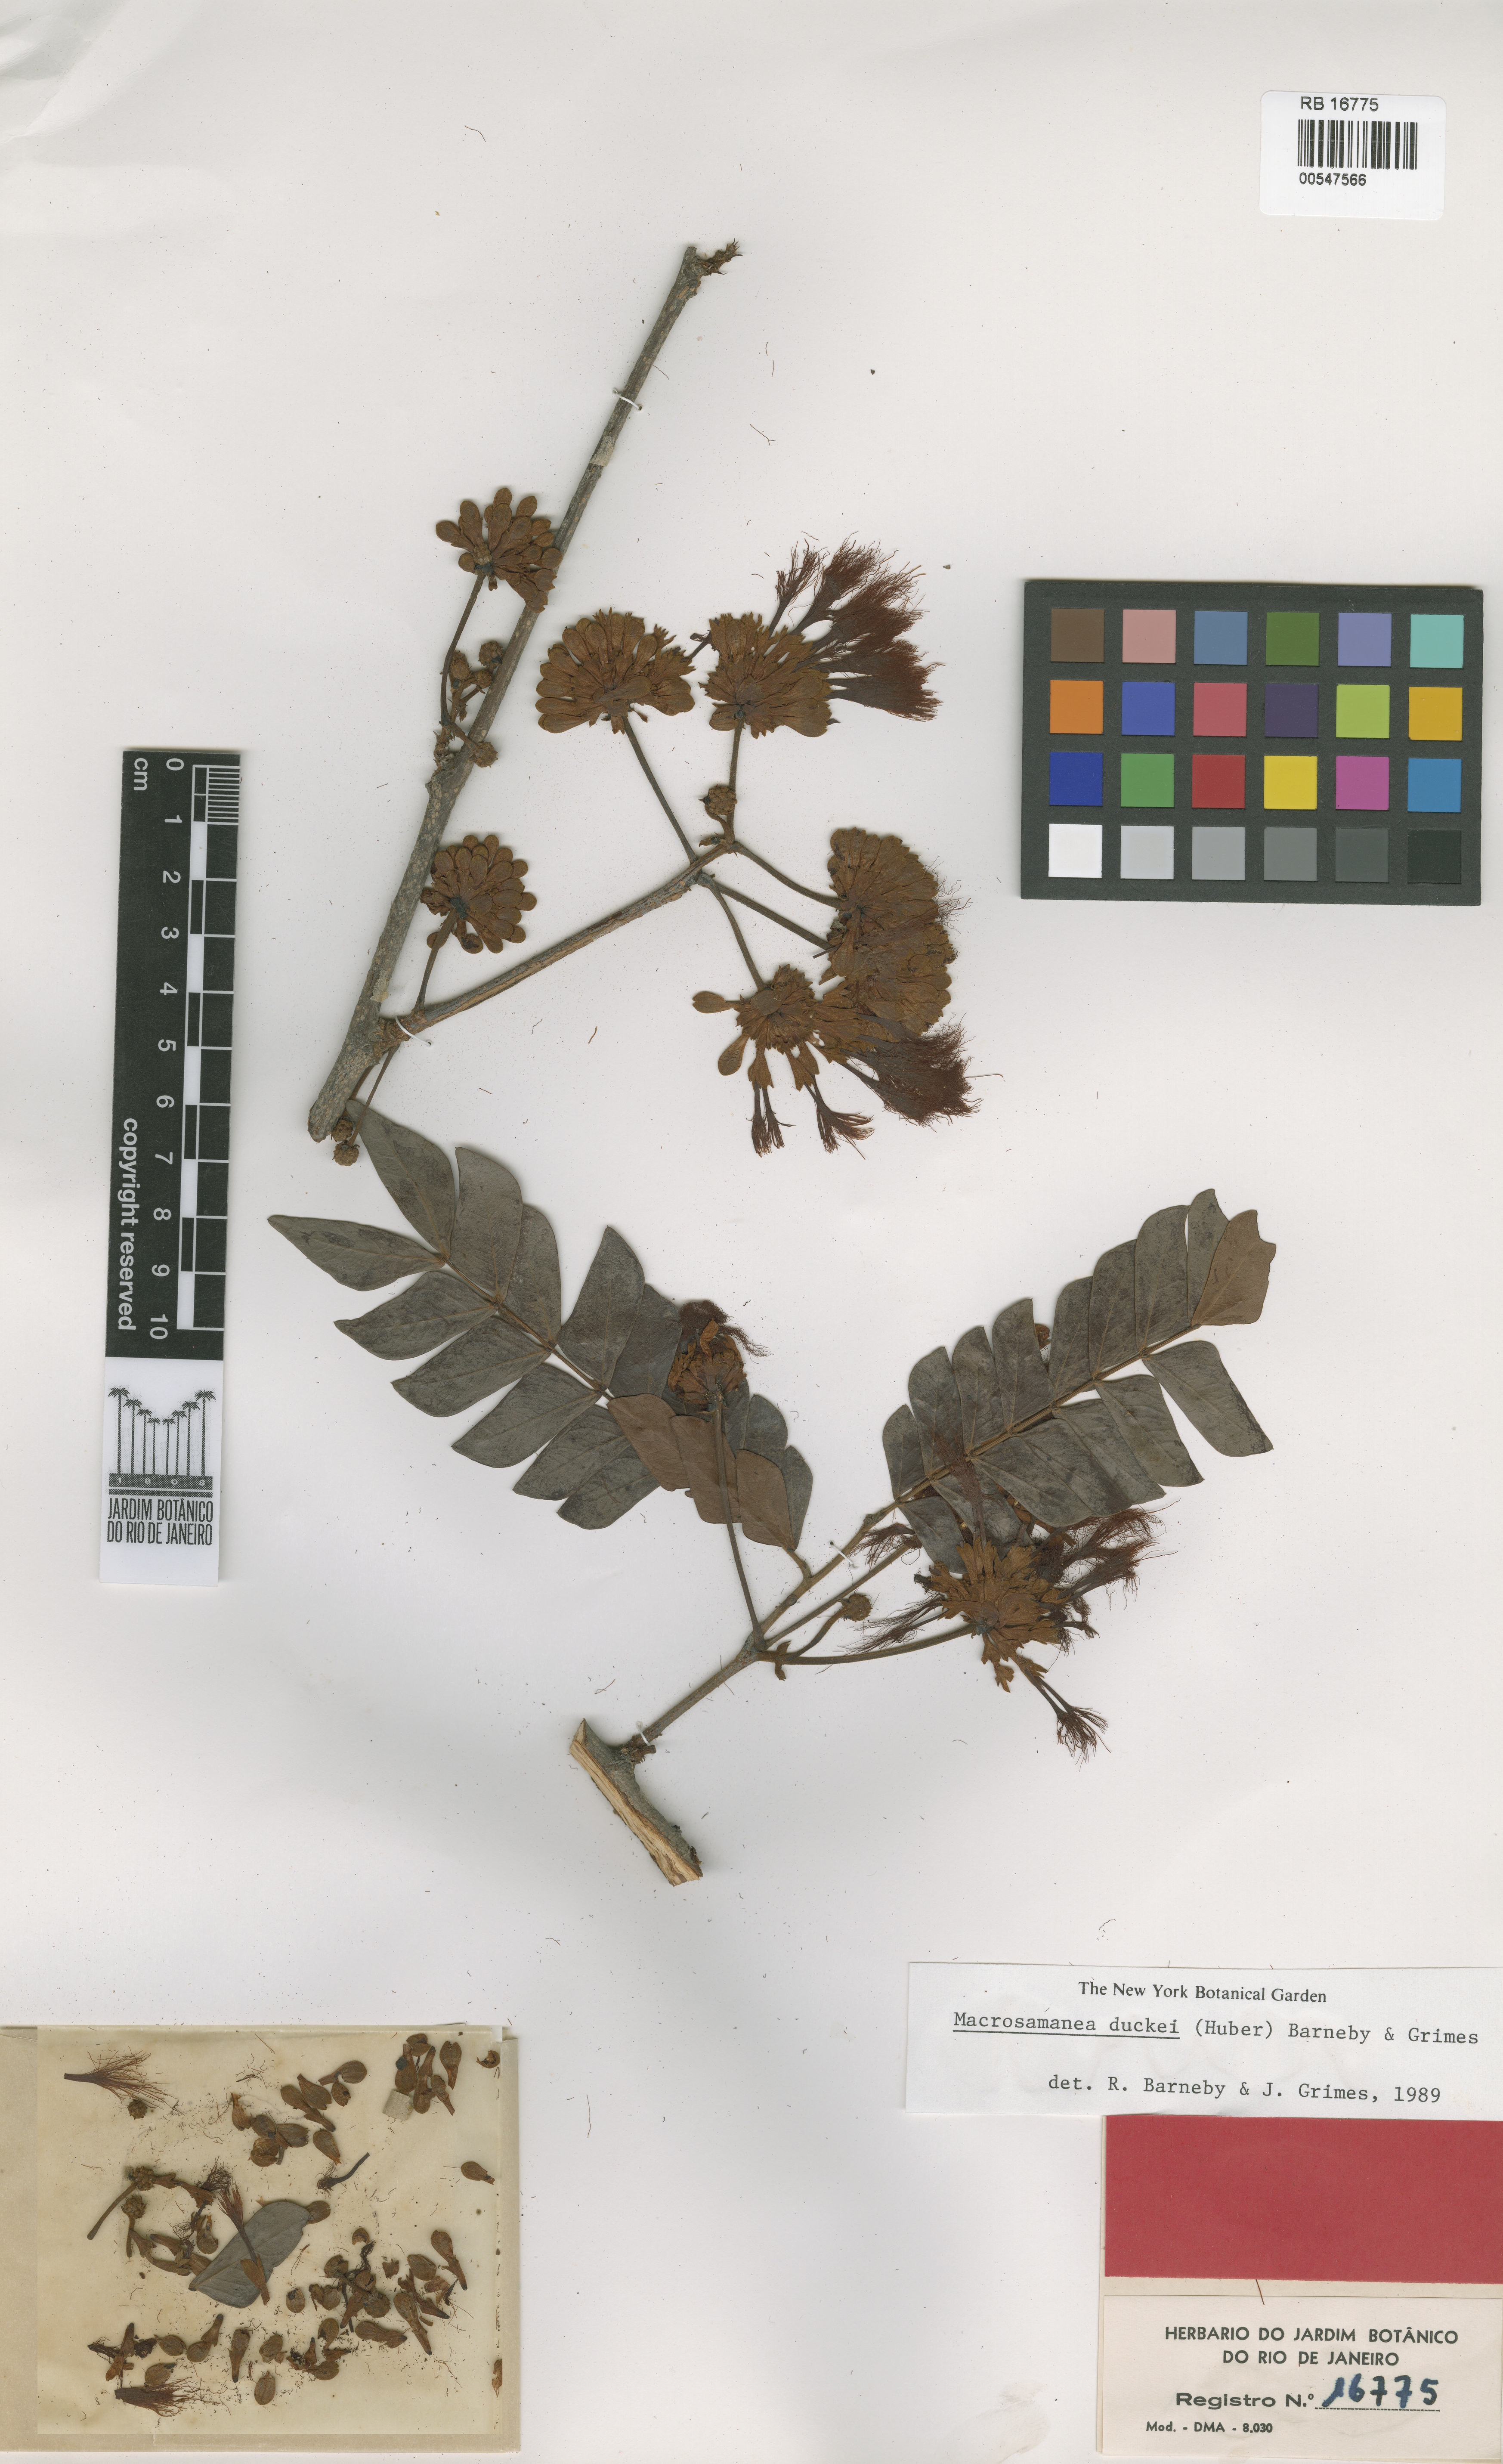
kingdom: Plantae
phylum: Tracheophyta
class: Magnoliopsida
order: Fabales
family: Fabaceae
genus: Macrosamanea
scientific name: Macrosamanea duckei
